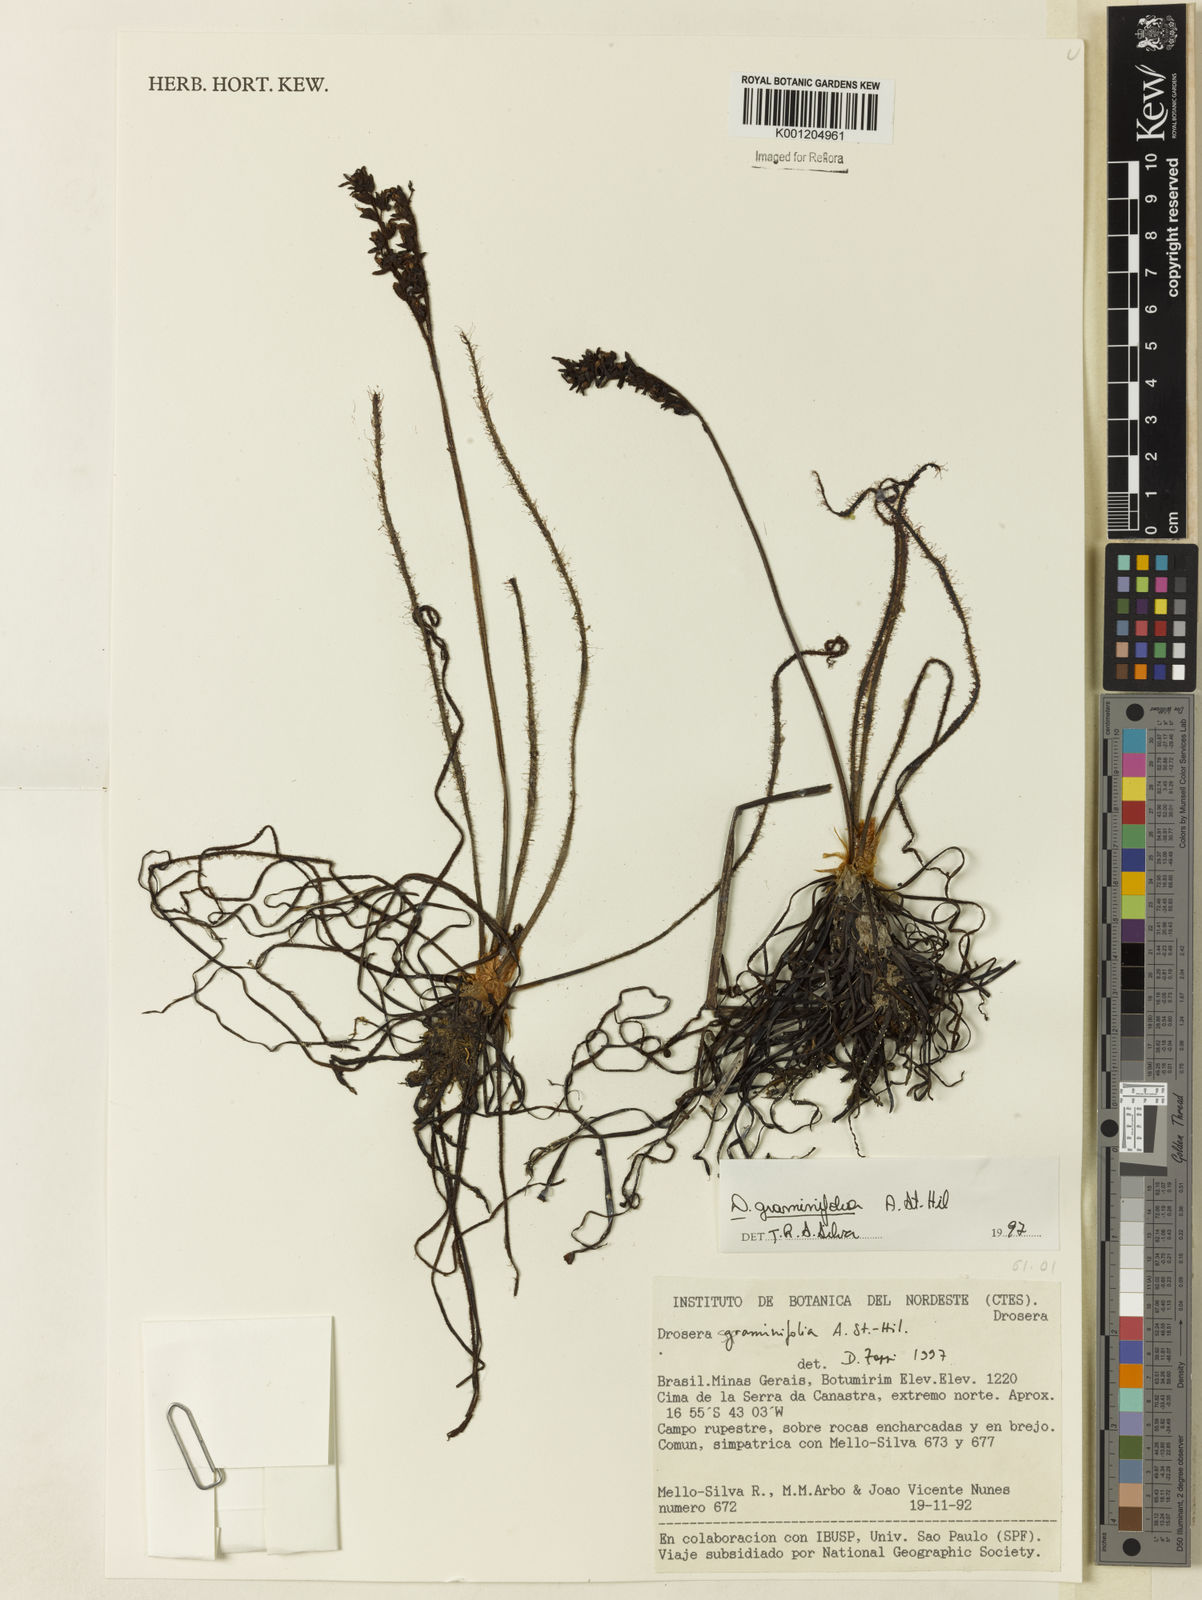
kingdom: Plantae
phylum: Tracheophyta
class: Magnoliopsida
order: Caryophyllales
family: Droseraceae
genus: Drosera
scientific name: Drosera graminifolia
